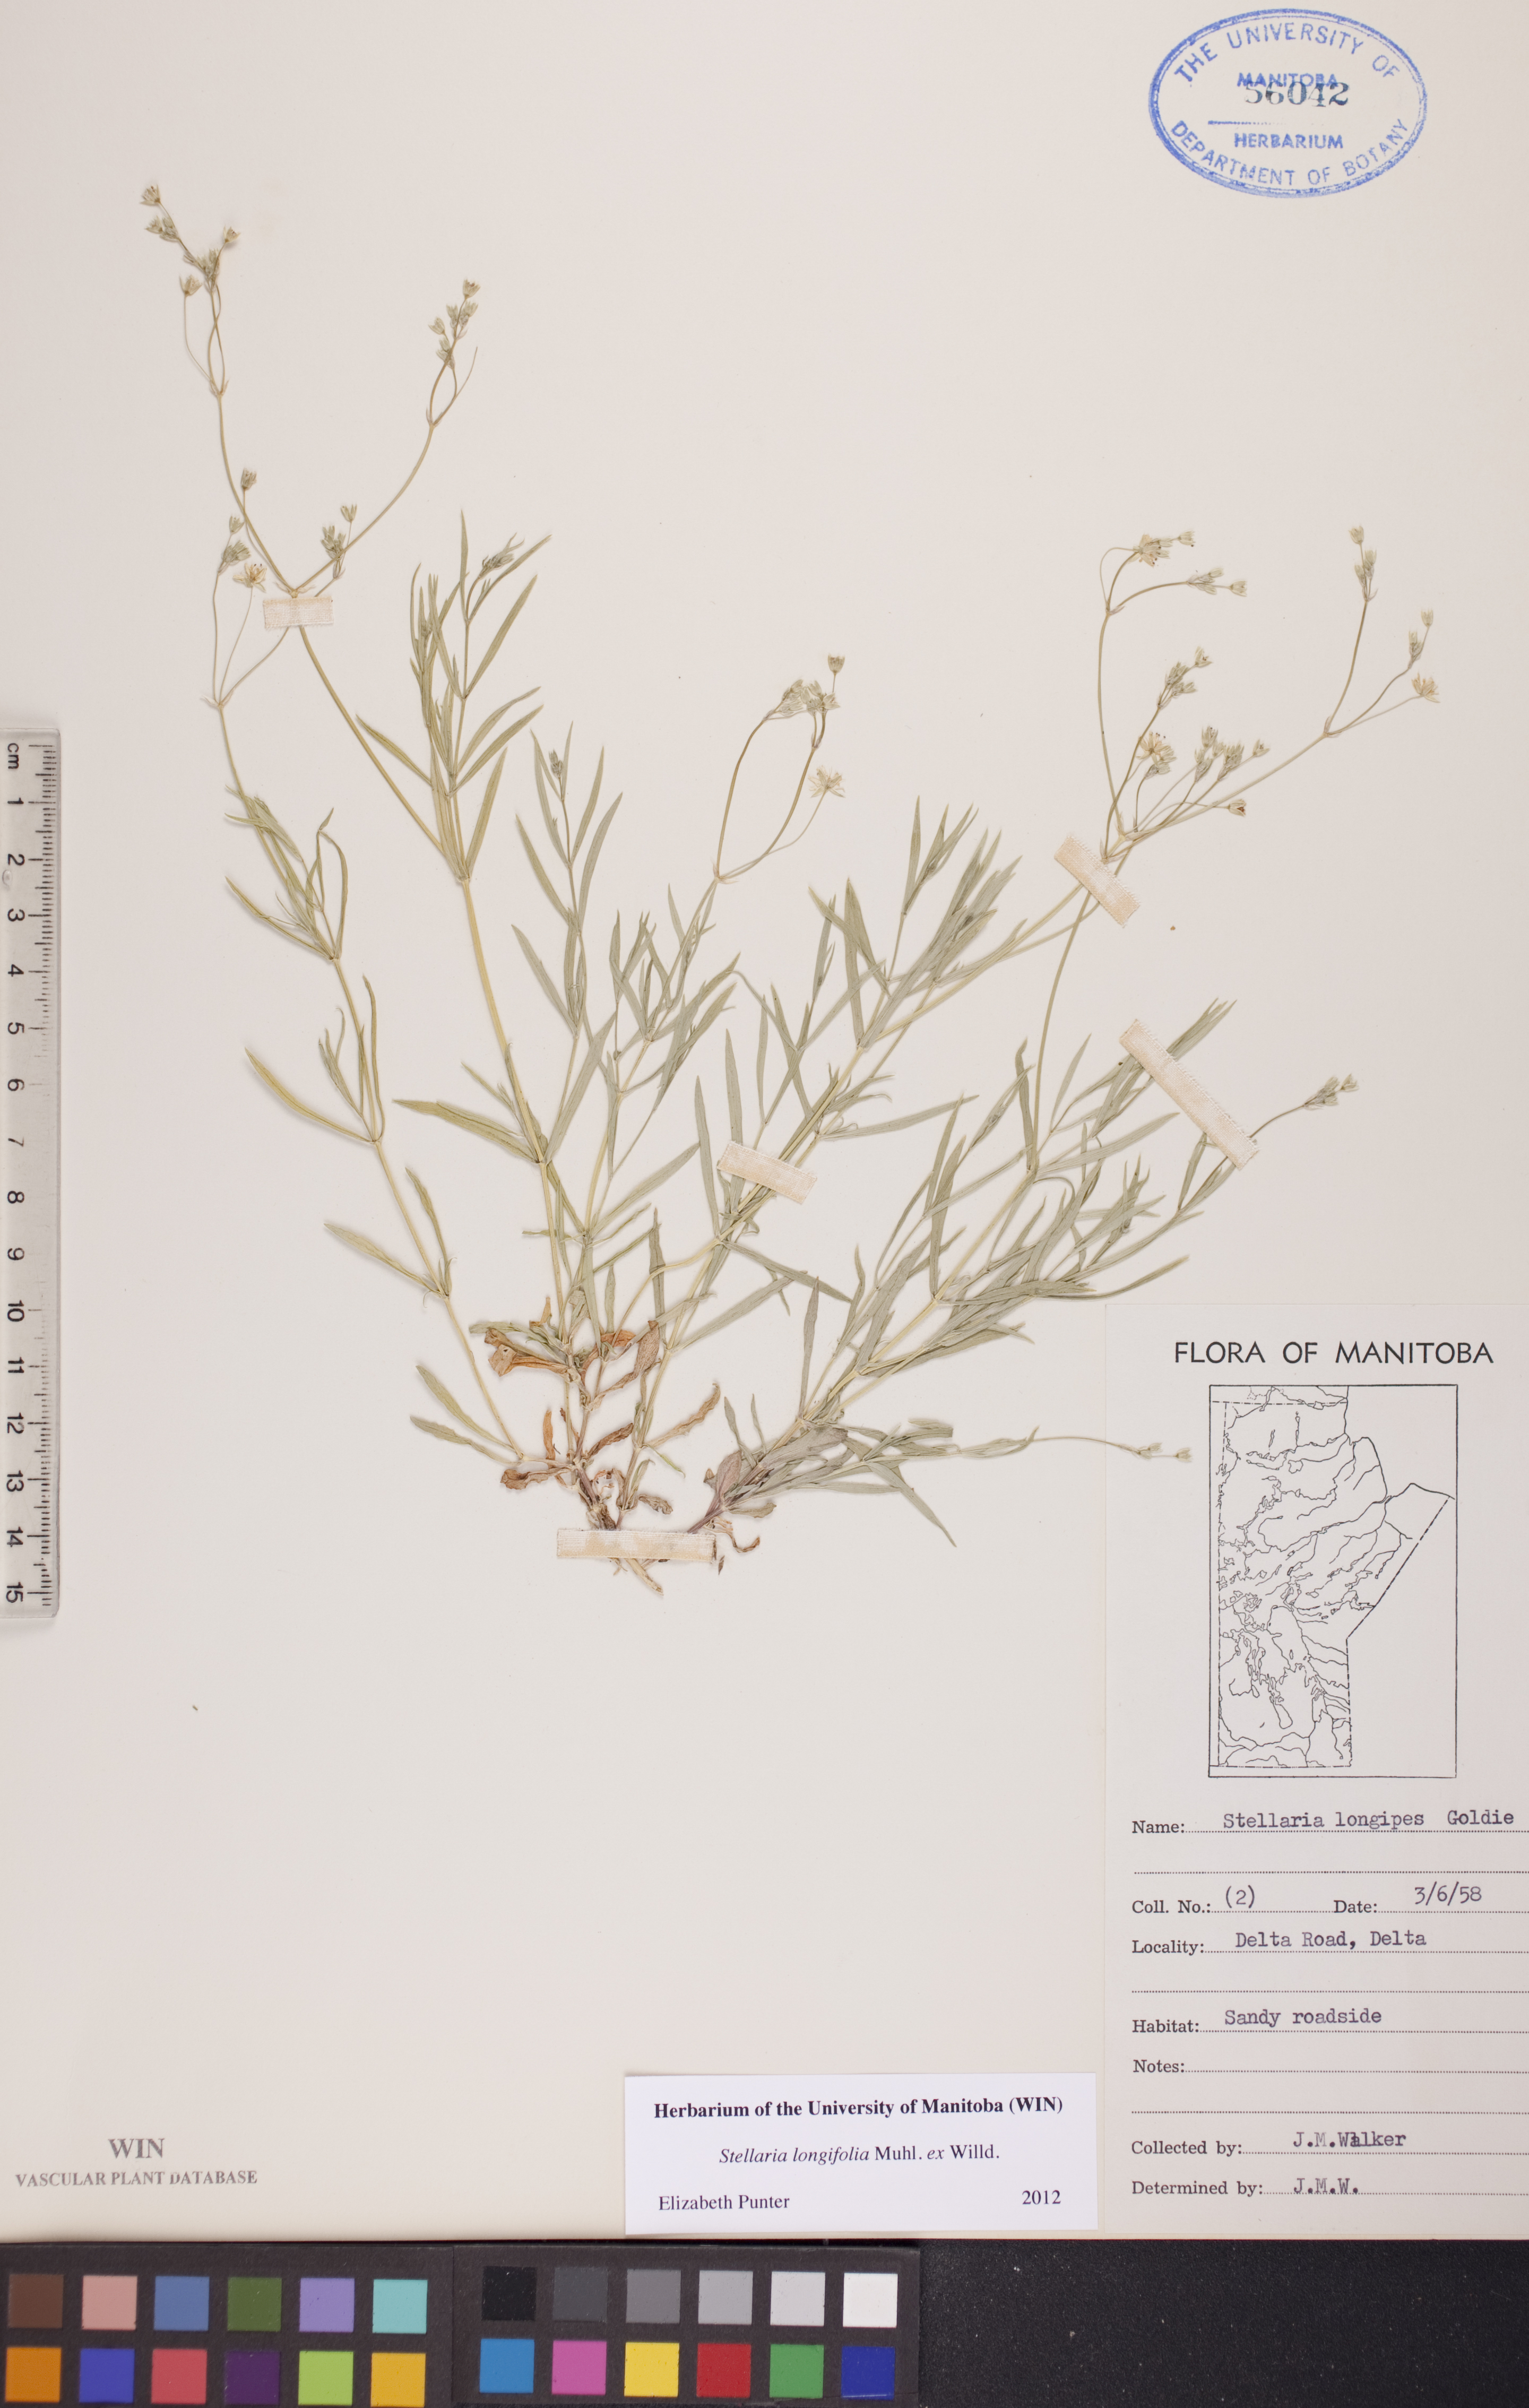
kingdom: Plantae
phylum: Tracheophyta
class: Magnoliopsida
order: Caryophyllales
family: Caryophyllaceae
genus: Stellaria
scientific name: Stellaria longifolia
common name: Long-leaved chickweed
